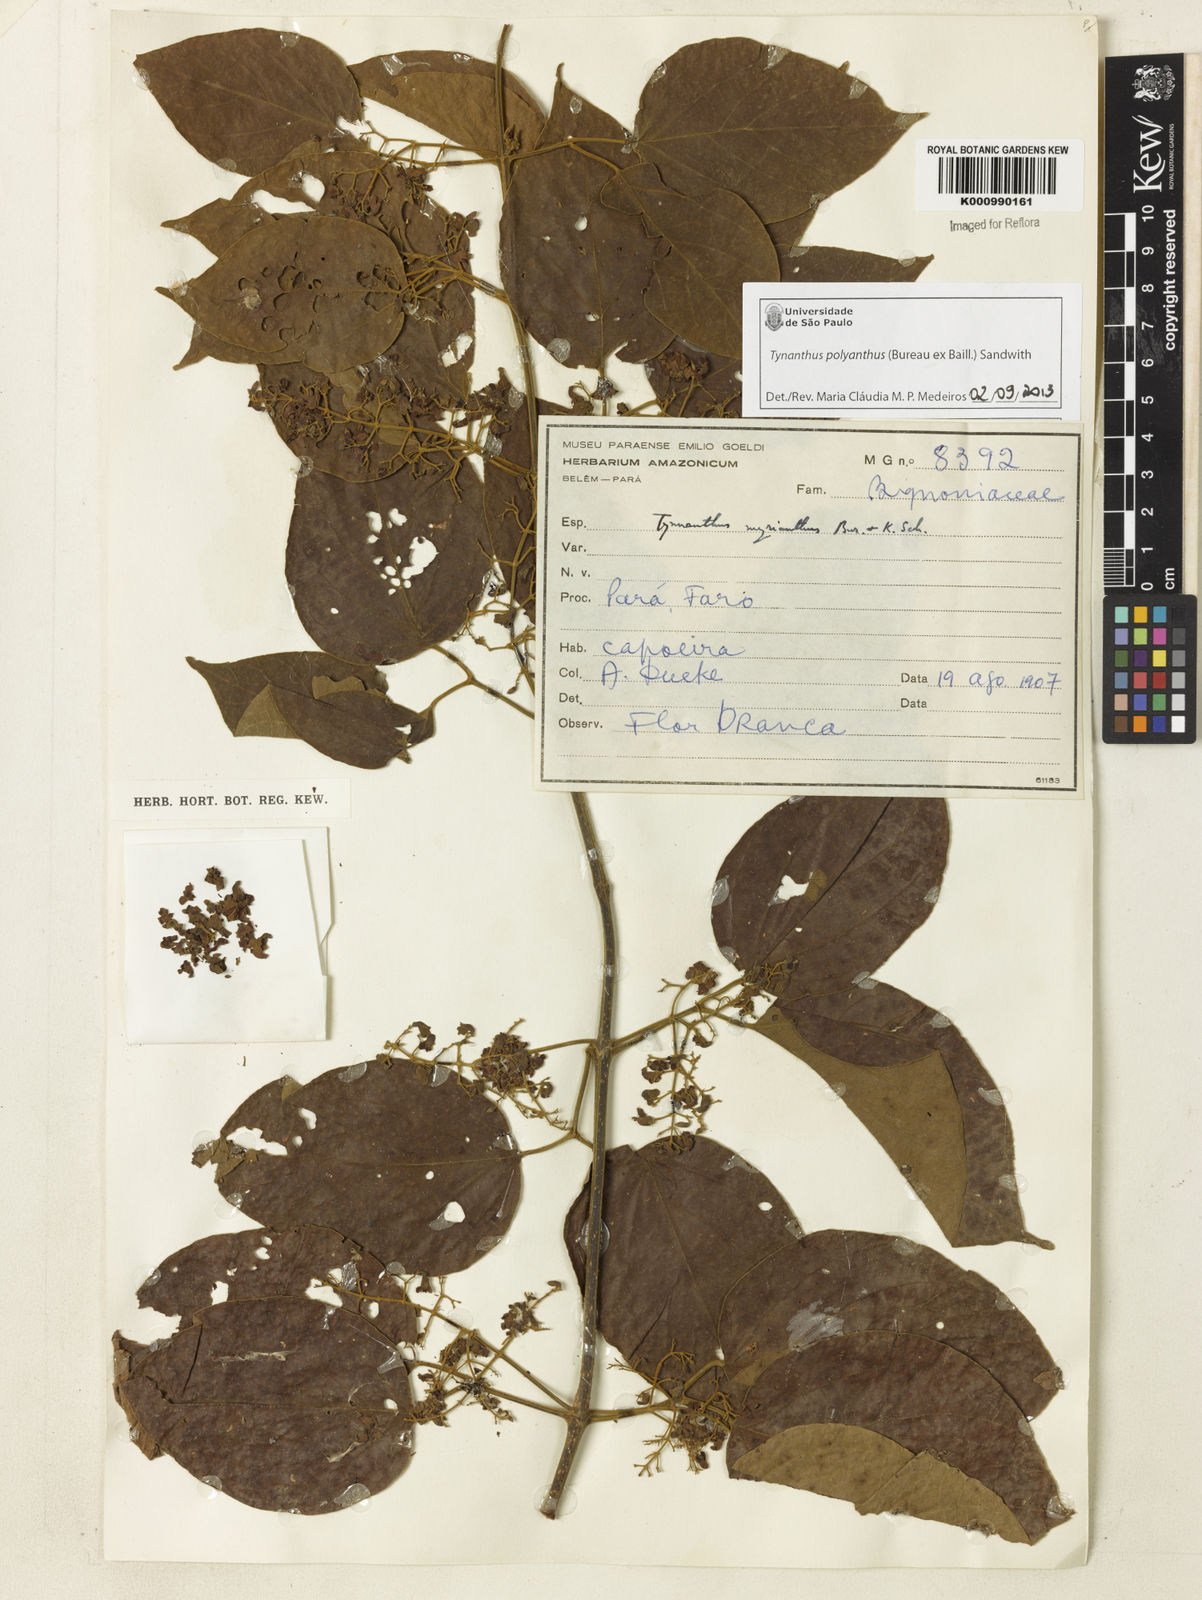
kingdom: Plantae
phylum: Tracheophyta
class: Magnoliopsida
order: Lamiales
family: Bignoniaceae
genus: Tynanthus
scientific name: Tynanthus polyanthus
